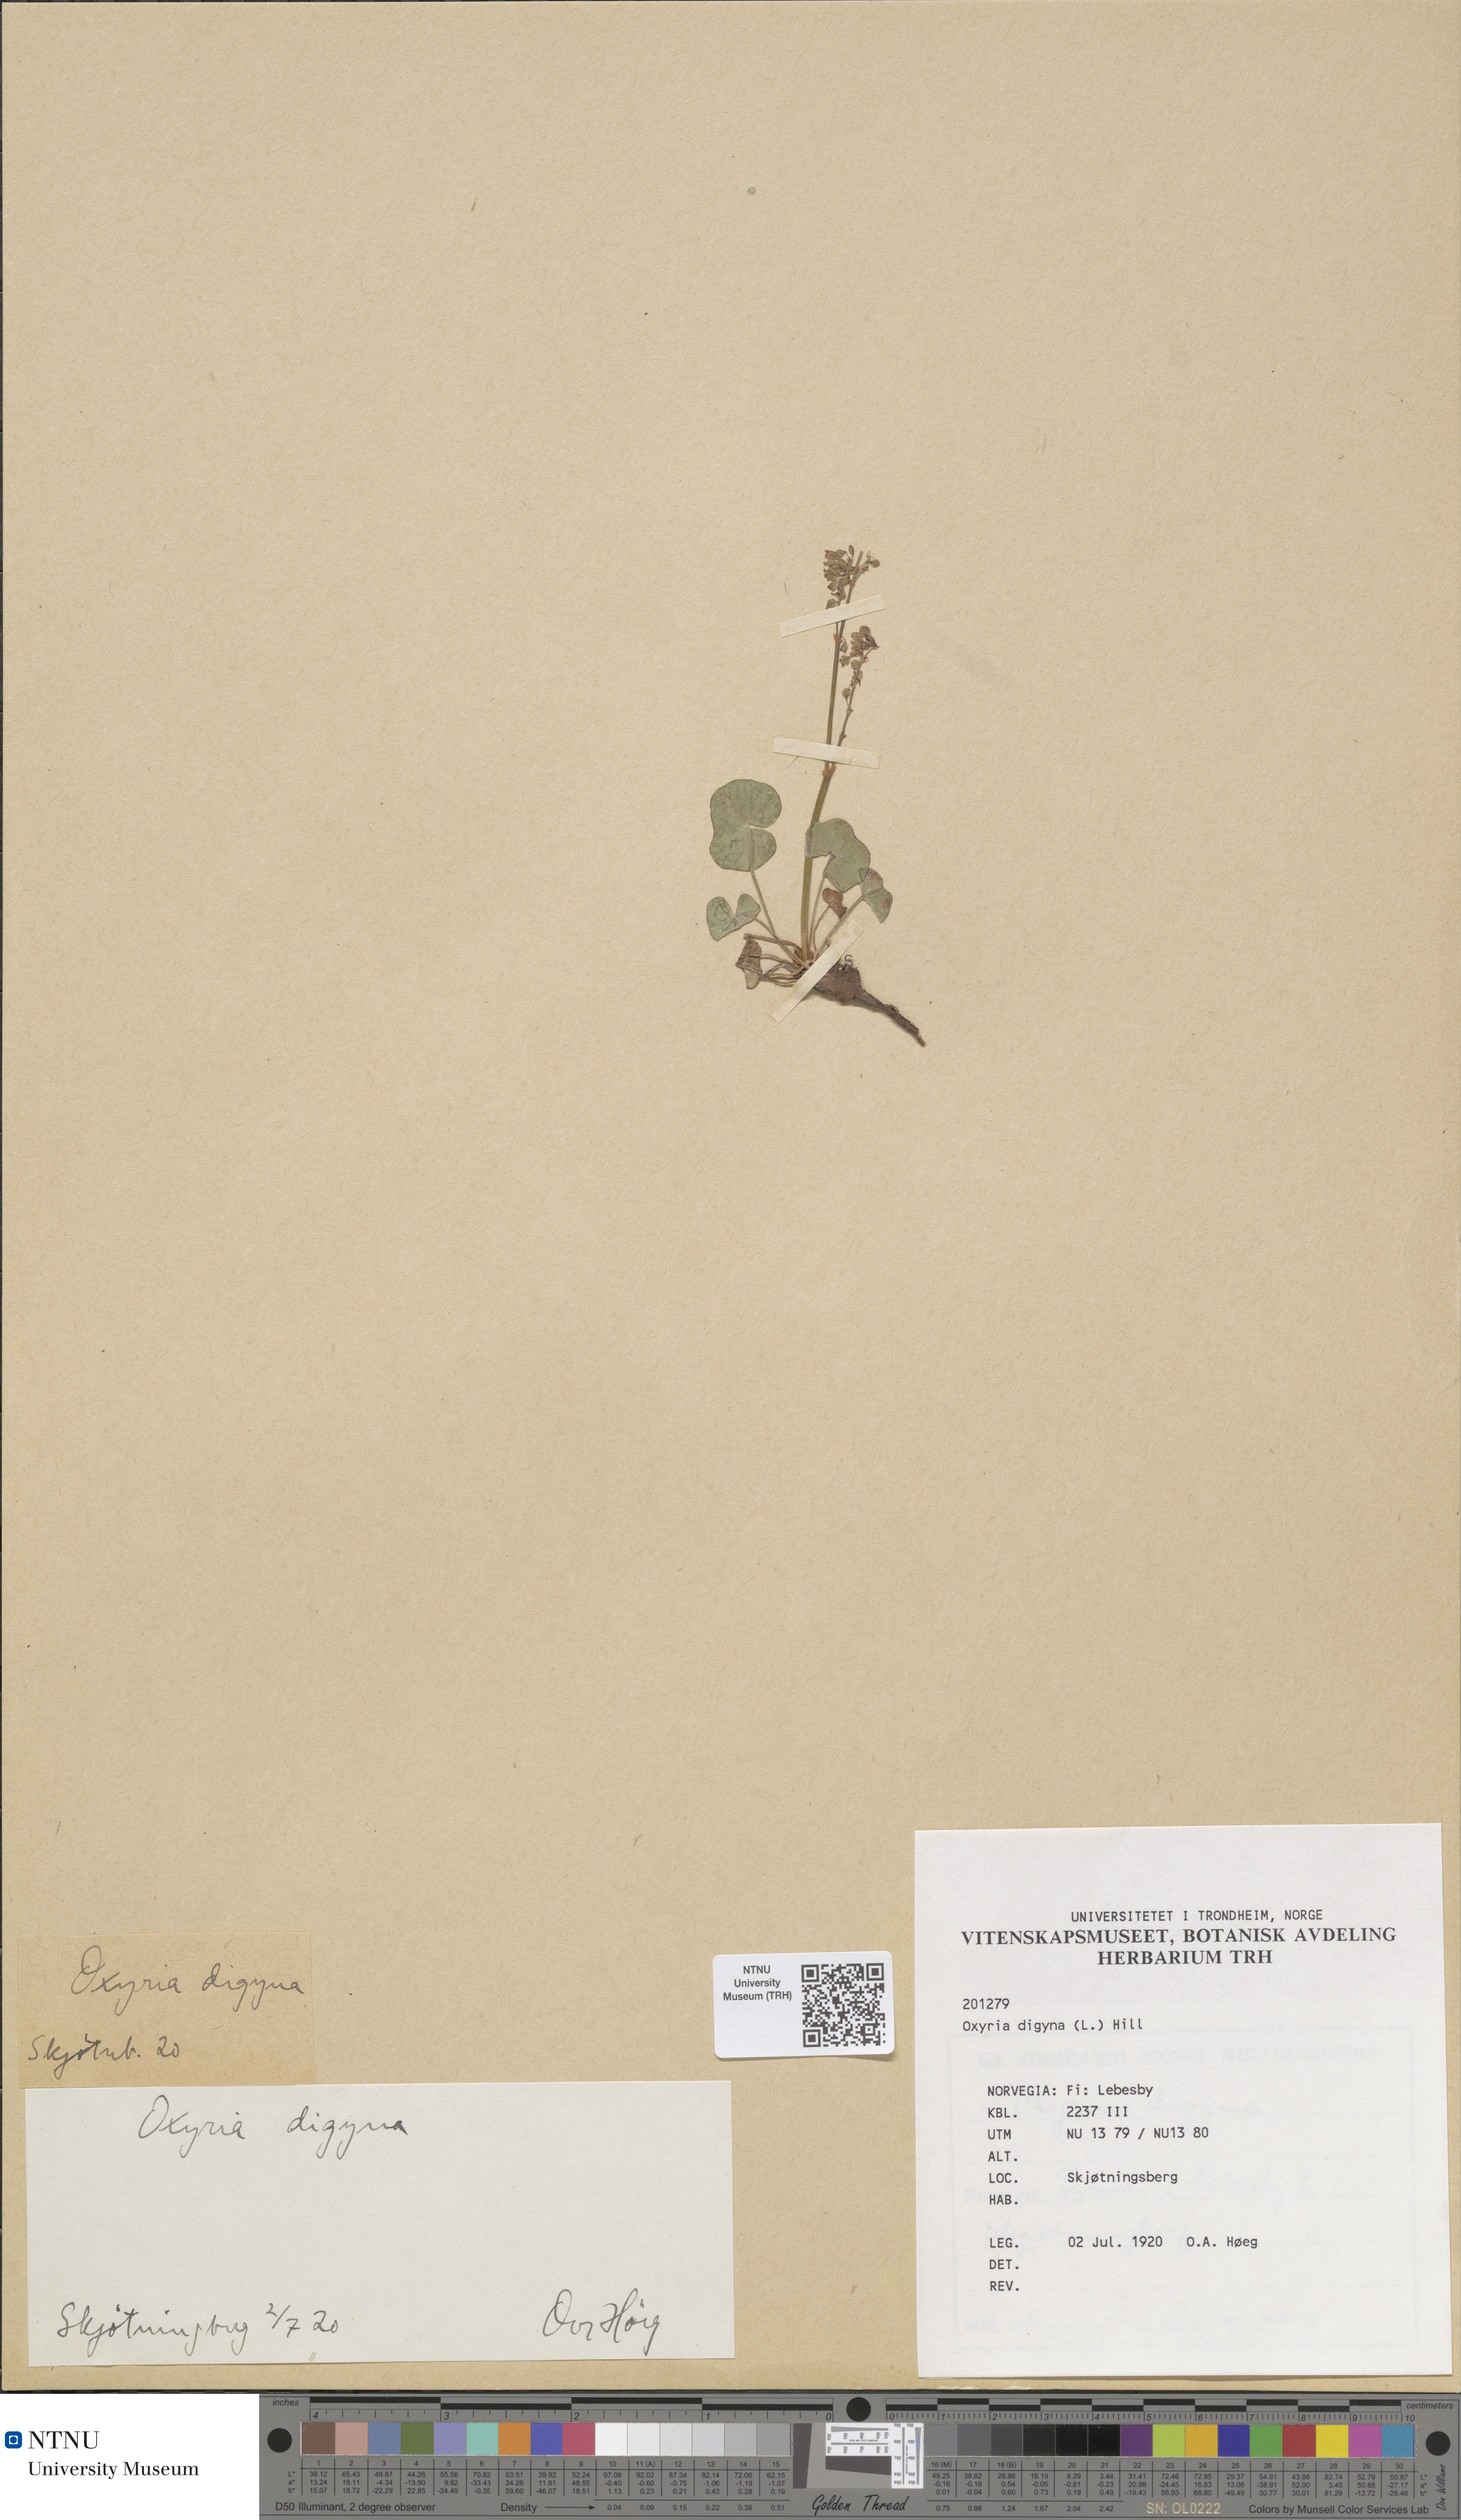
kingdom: Plantae
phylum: Tracheophyta
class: Magnoliopsida
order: Caryophyllales
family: Polygonaceae
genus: Oxyria
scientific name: Oxyria digyna
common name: Alpine mountain-sorrel
